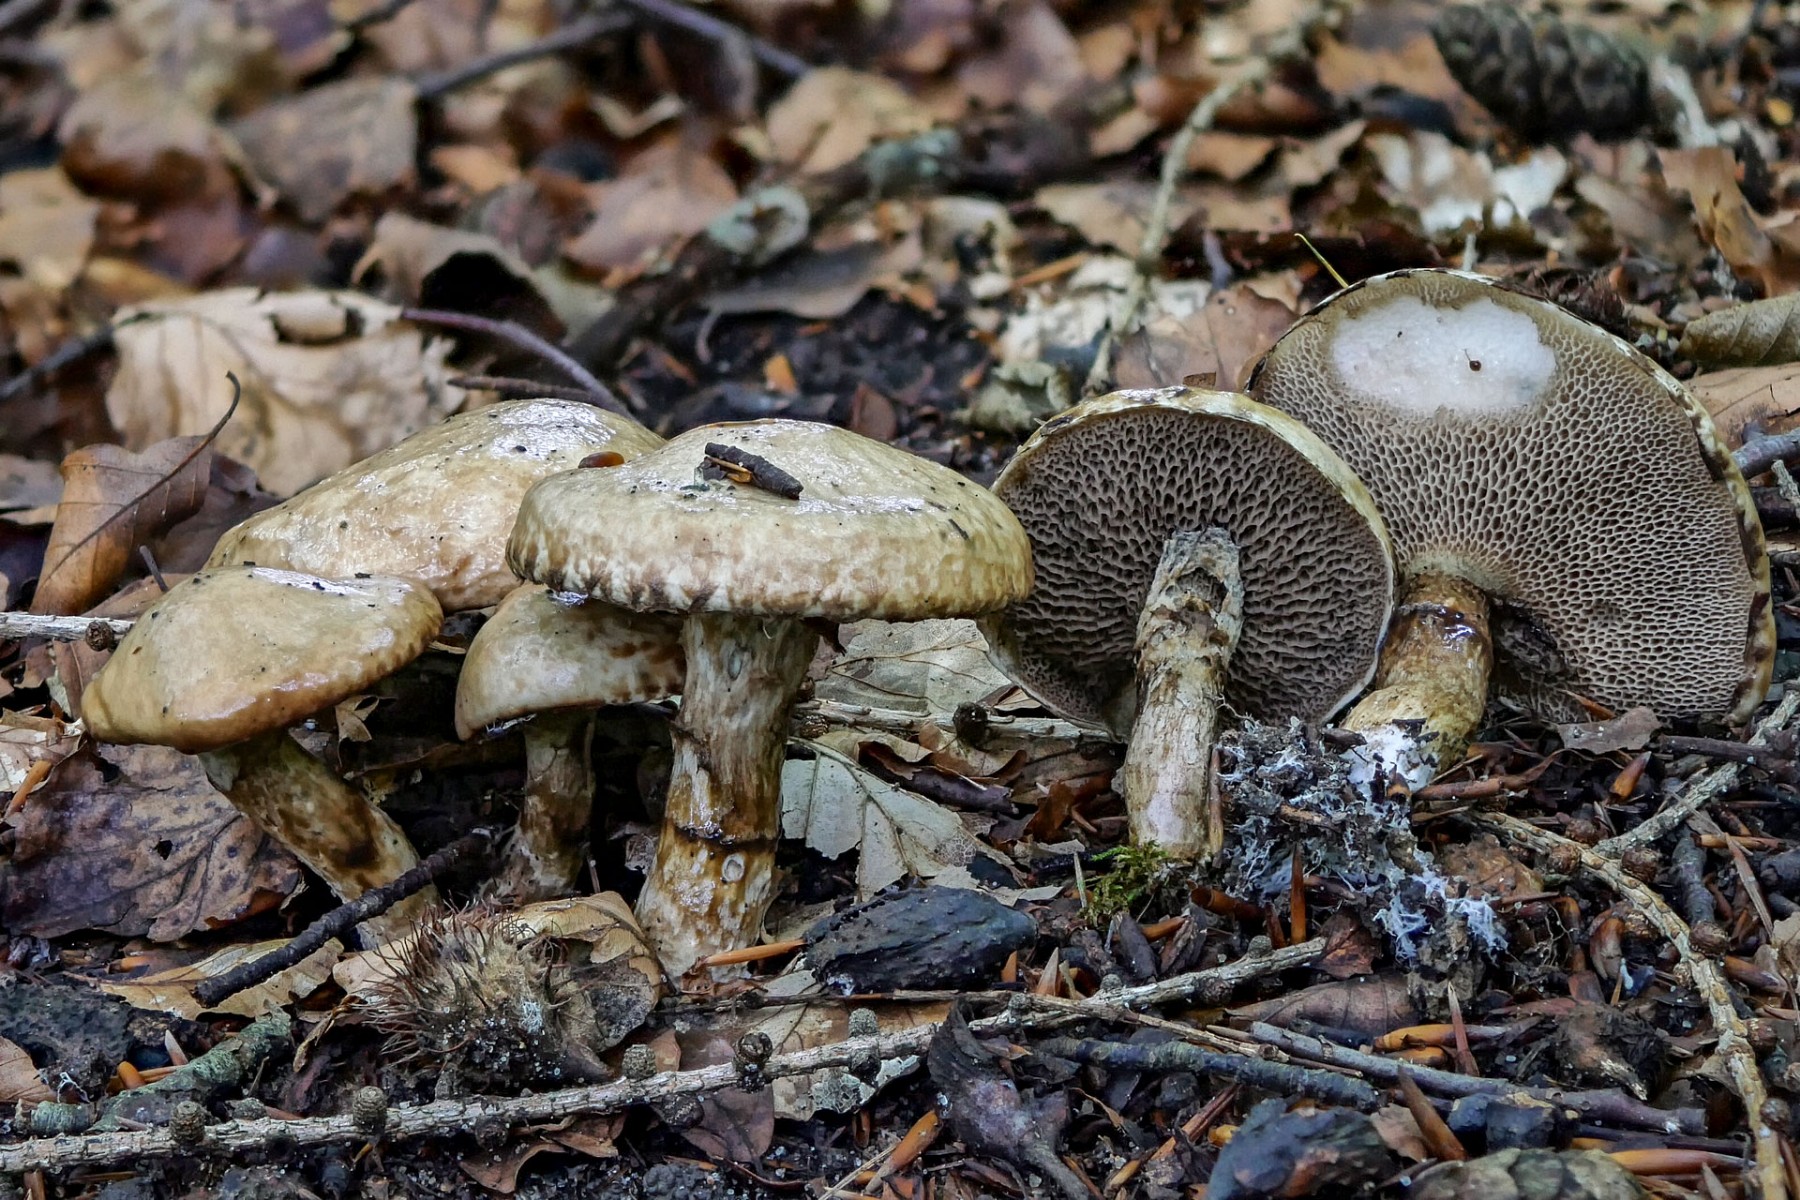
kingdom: Fungi
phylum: Basidiomycota
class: Agaricomycetes
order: Boletales
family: Suillaceae
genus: Suillus
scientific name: Suillus viscidus
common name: olivengrå slimrørhat
